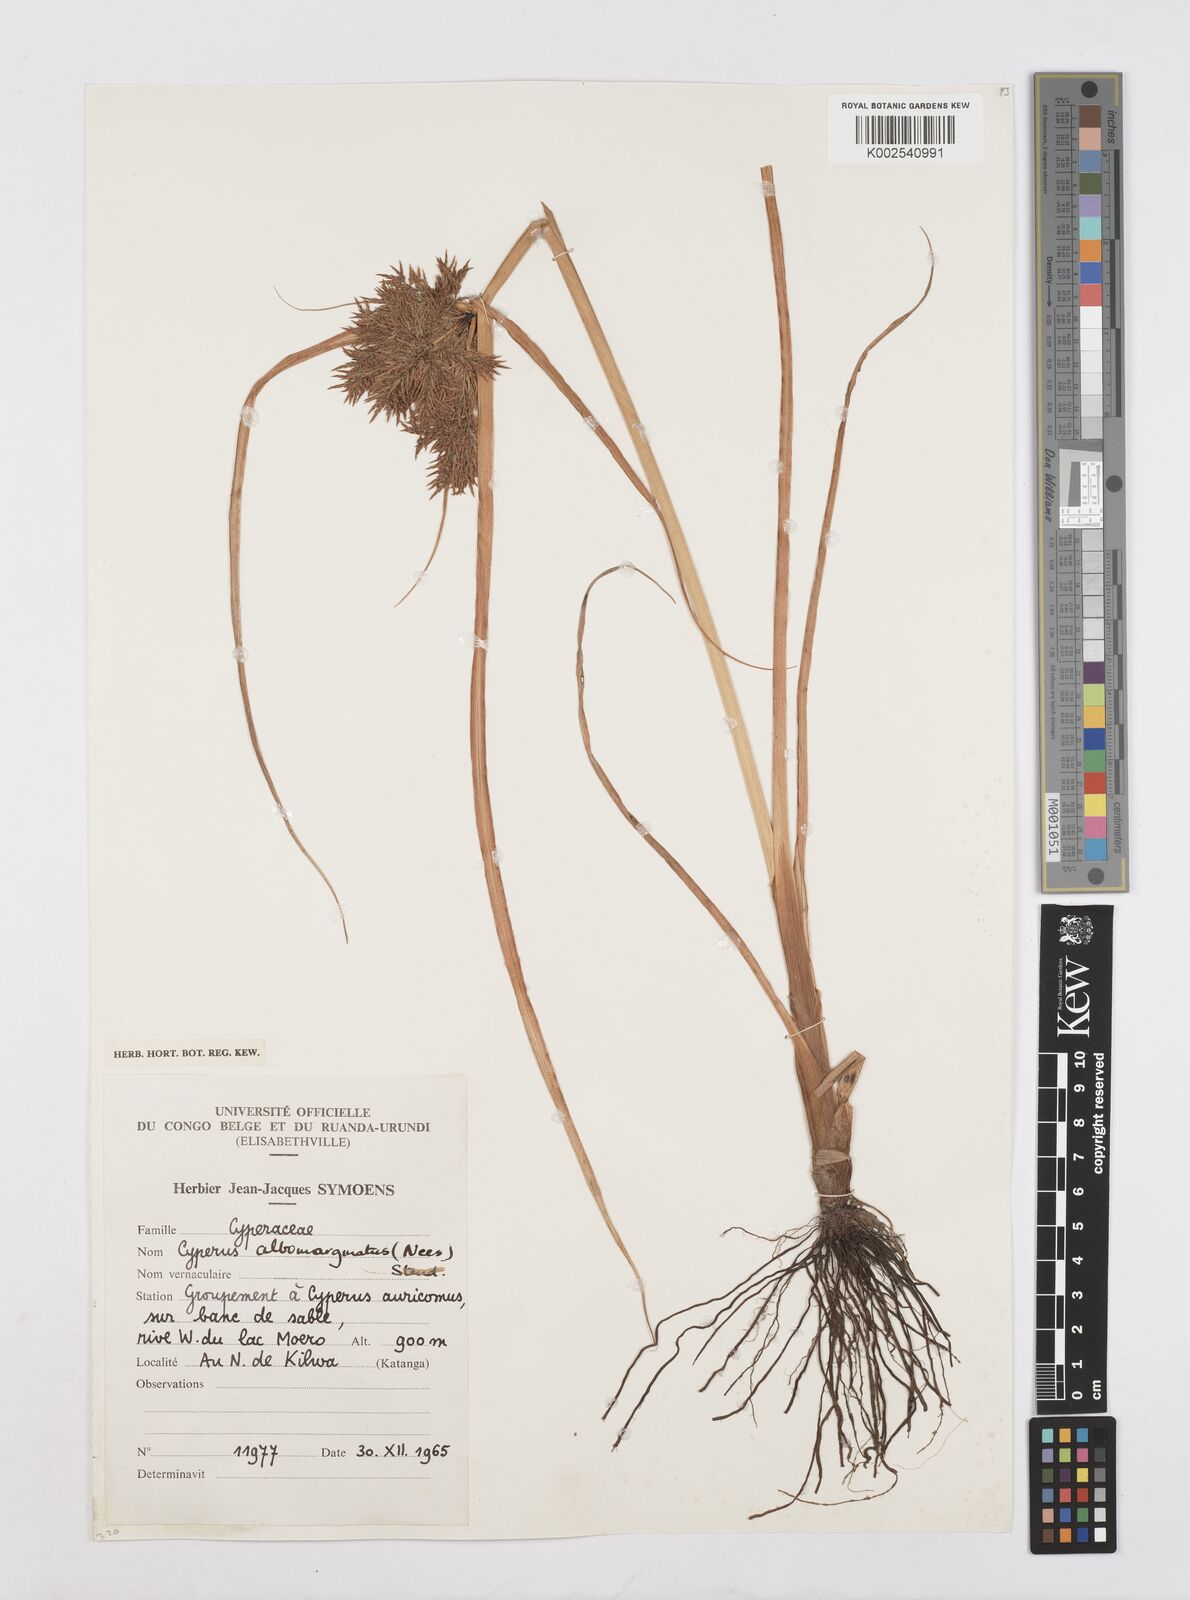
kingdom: Plantae
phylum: Tracheophyta
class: Liliopsida
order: Poales
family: Cyperaceae
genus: Cyperus
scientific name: Cyperus macrostachyos
